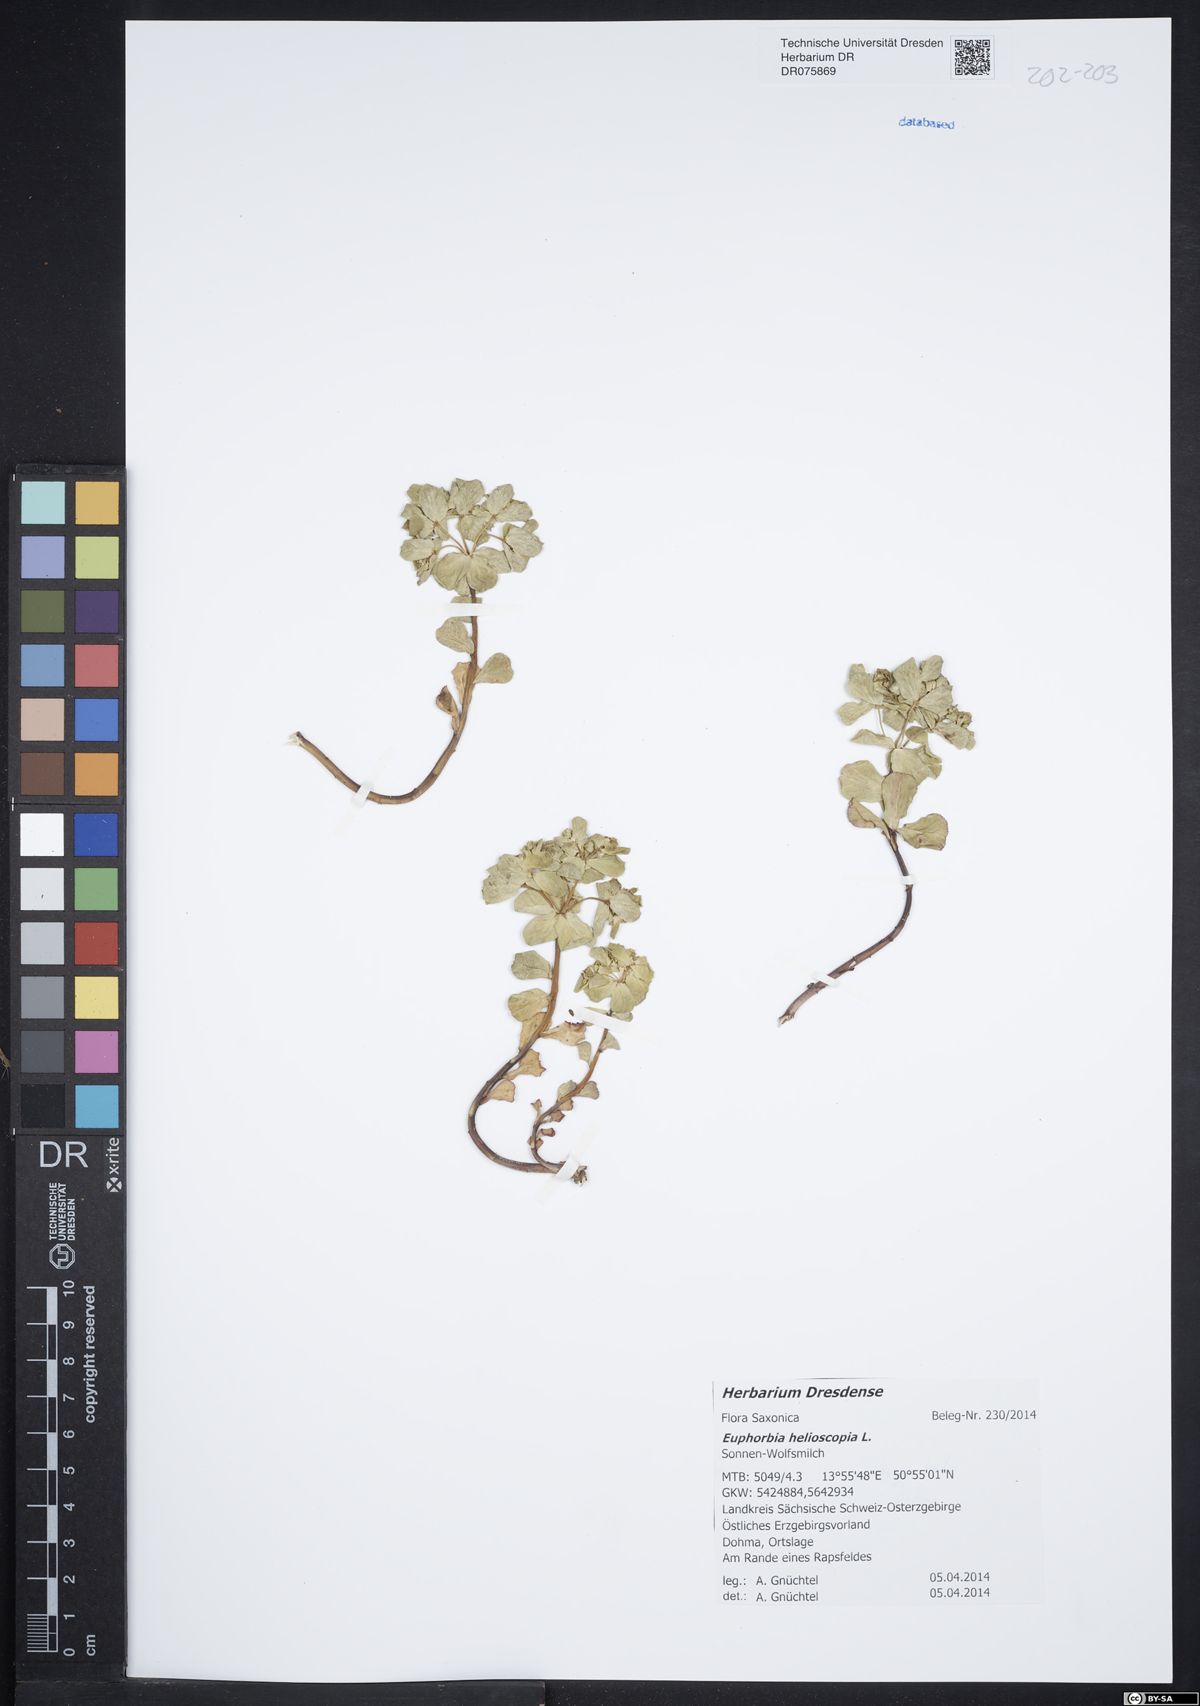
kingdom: Plantae
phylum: Tracheophyta
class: Magnoliopsida
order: Malpighiales
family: Euphorbiaceae
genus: Euphorbia
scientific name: Euphorbia helioscopia
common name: Sun spurge
